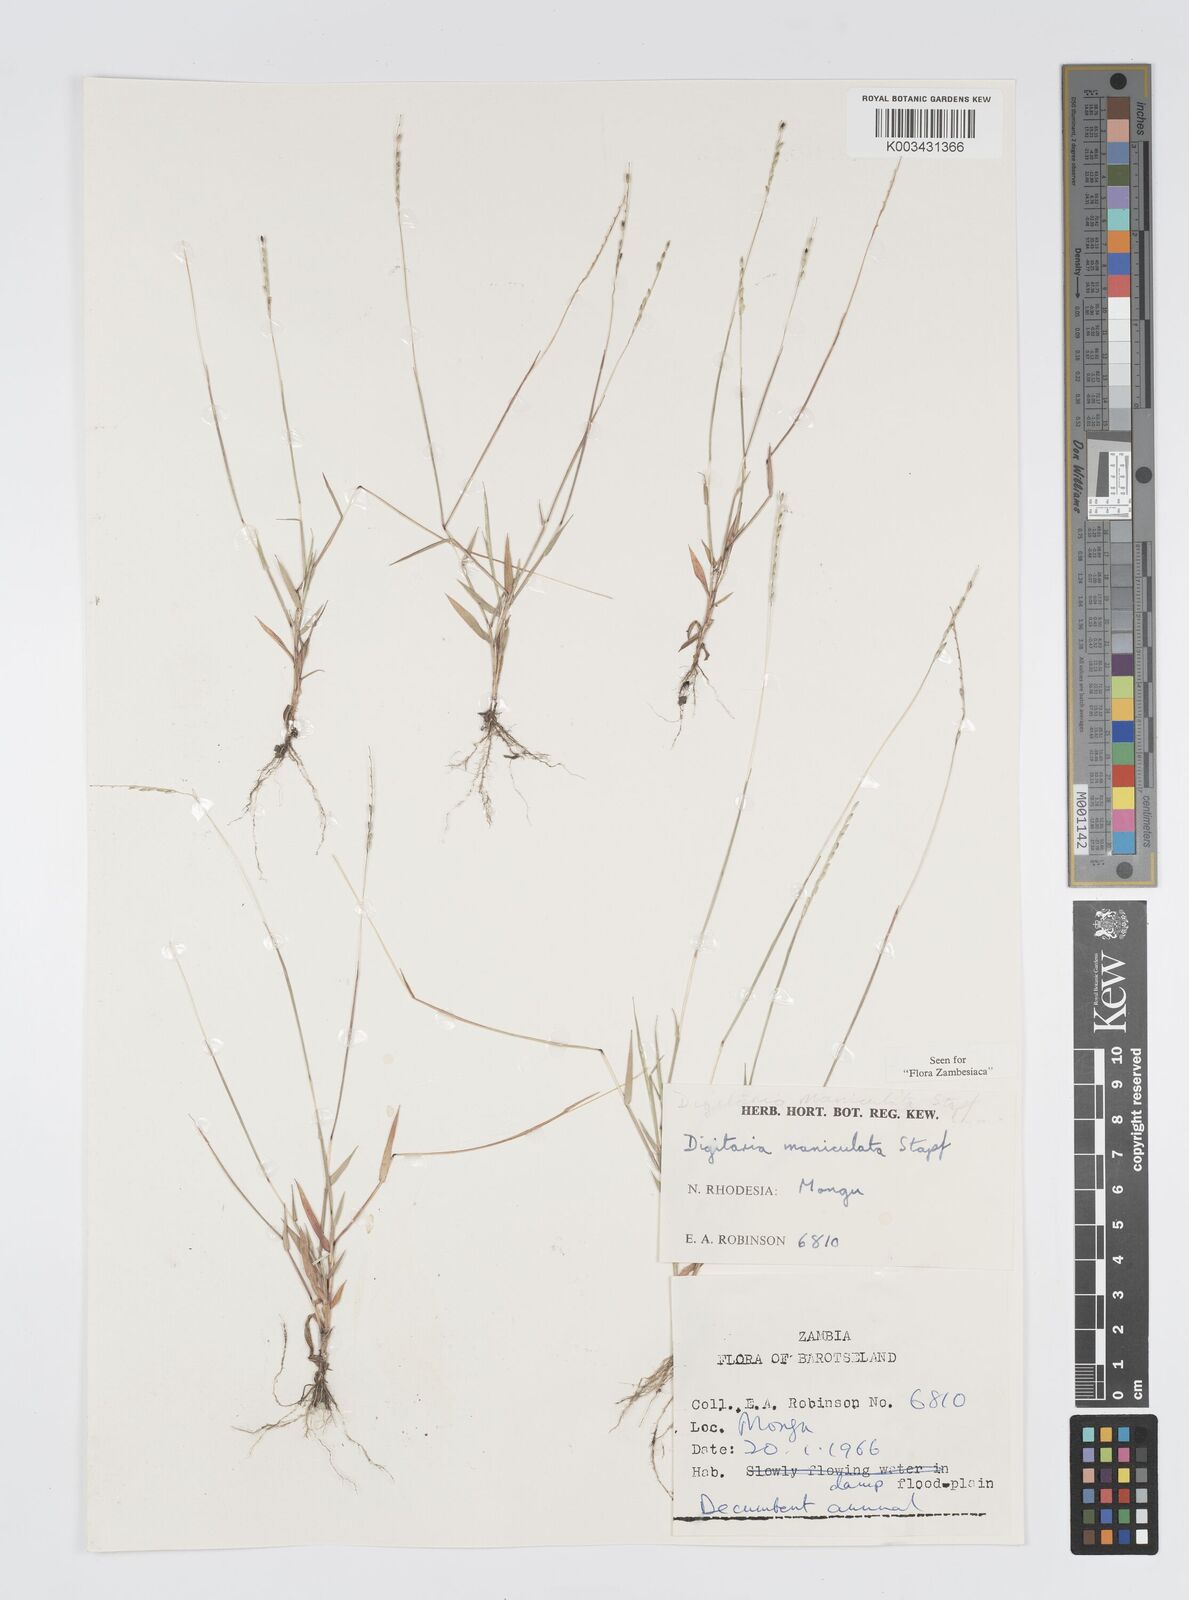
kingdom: Plantae
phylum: Tracheophyta
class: Liliopsida
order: Poales
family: Poaceae
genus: Digitaria
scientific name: Digitaria maniculata
